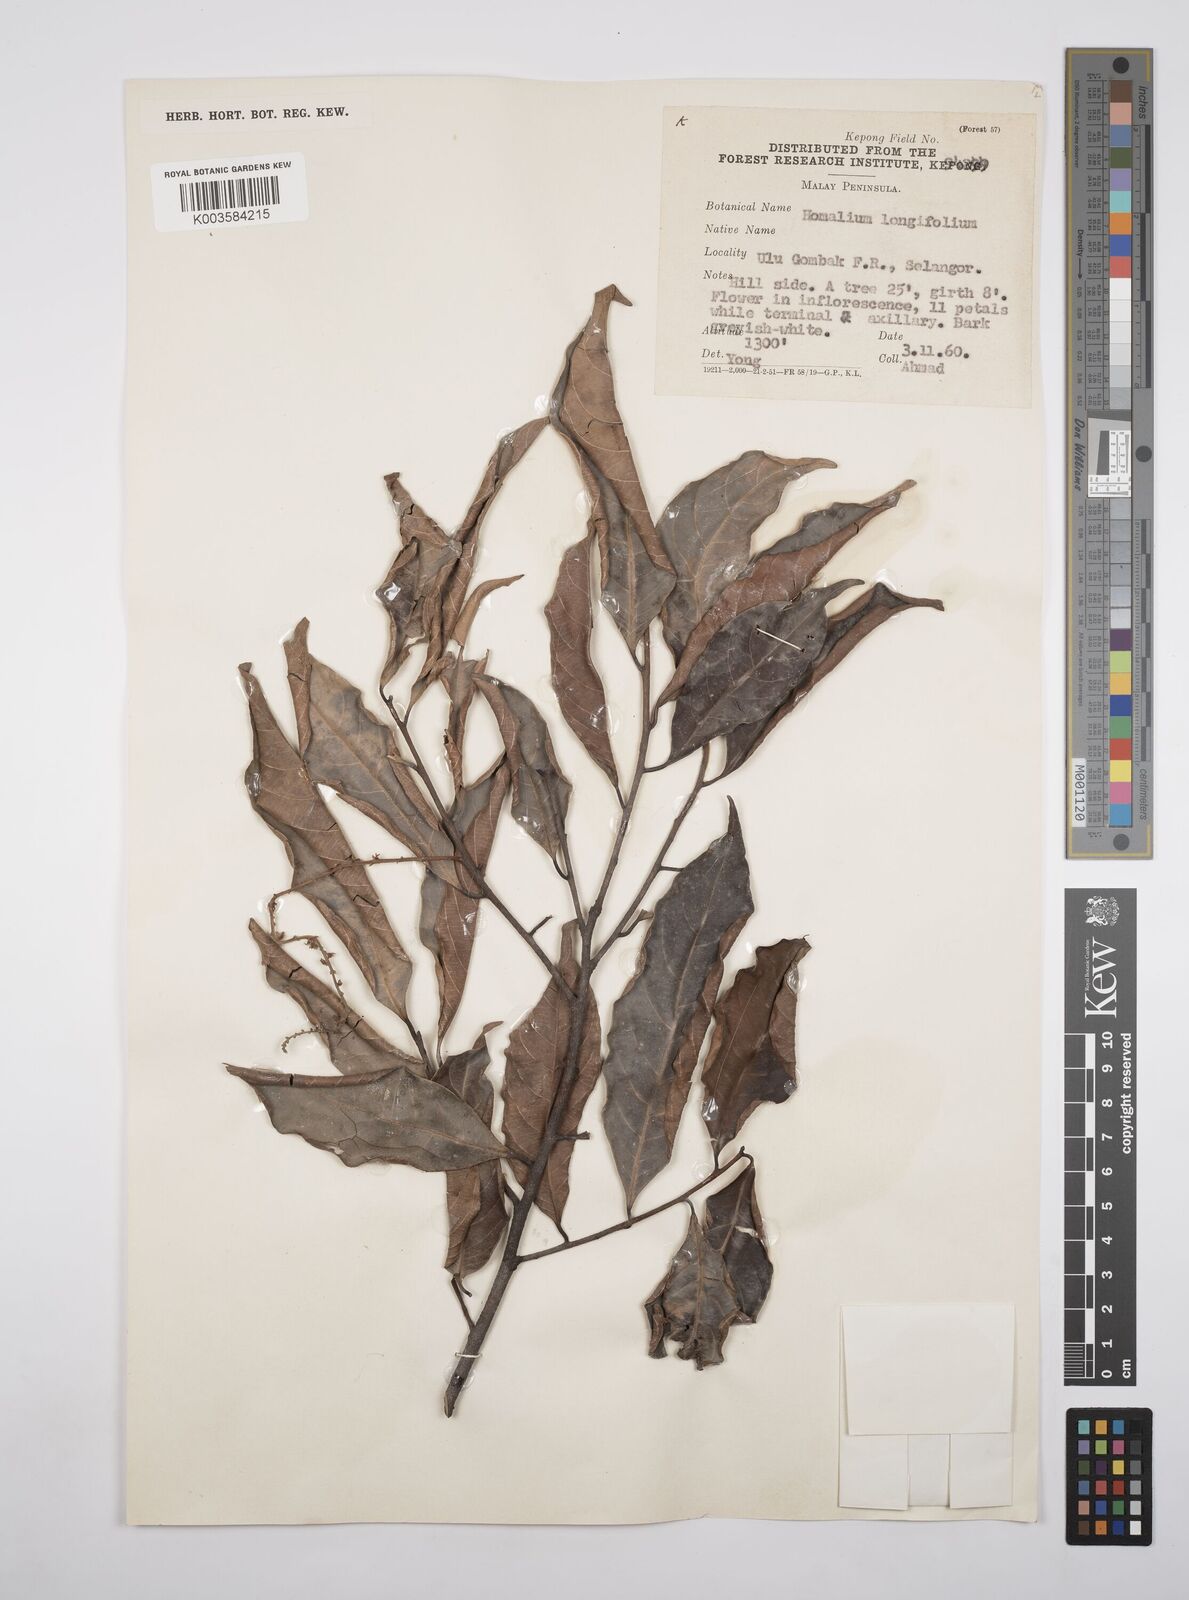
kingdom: Plantae
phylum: Tracheophyta
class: Magnoliopsida
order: Malpighiales
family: Salicaceae
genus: Homalium
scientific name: Homalium longifolium
